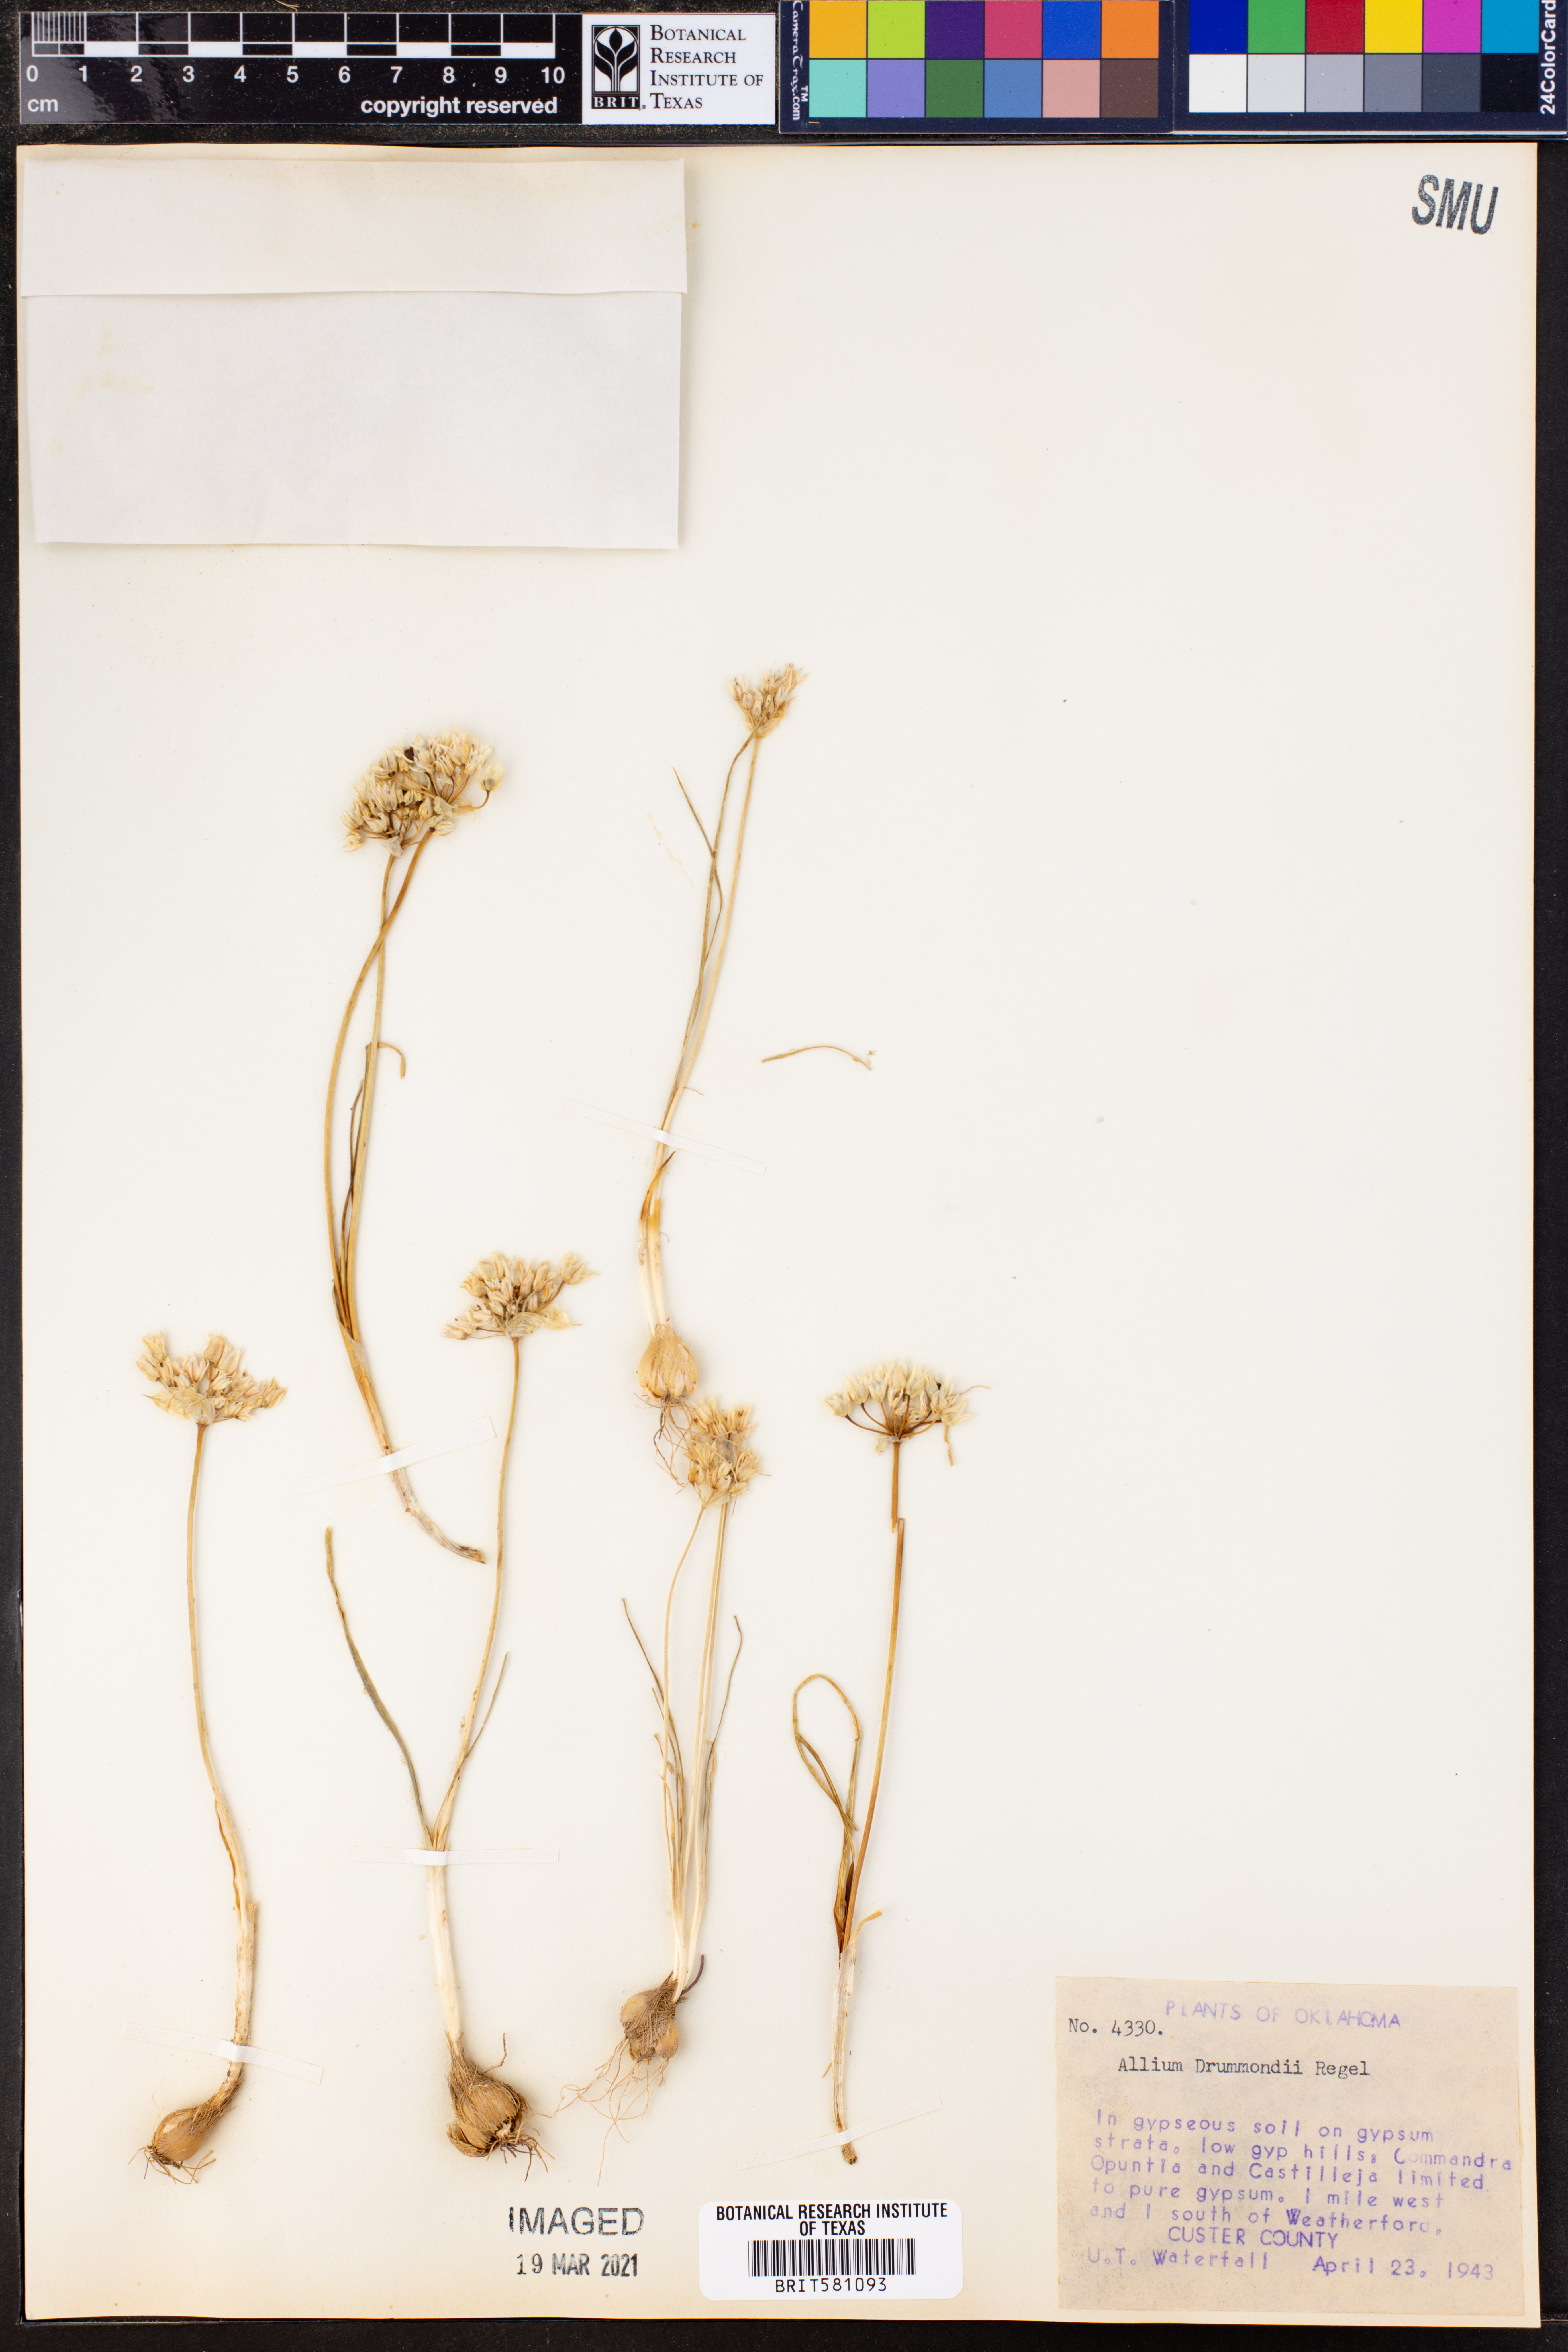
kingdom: Plantae
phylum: Tracheophyta
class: Liliopsida
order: Asparagales
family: Amaryllidaceae
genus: Allium
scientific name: Allium drummondii
